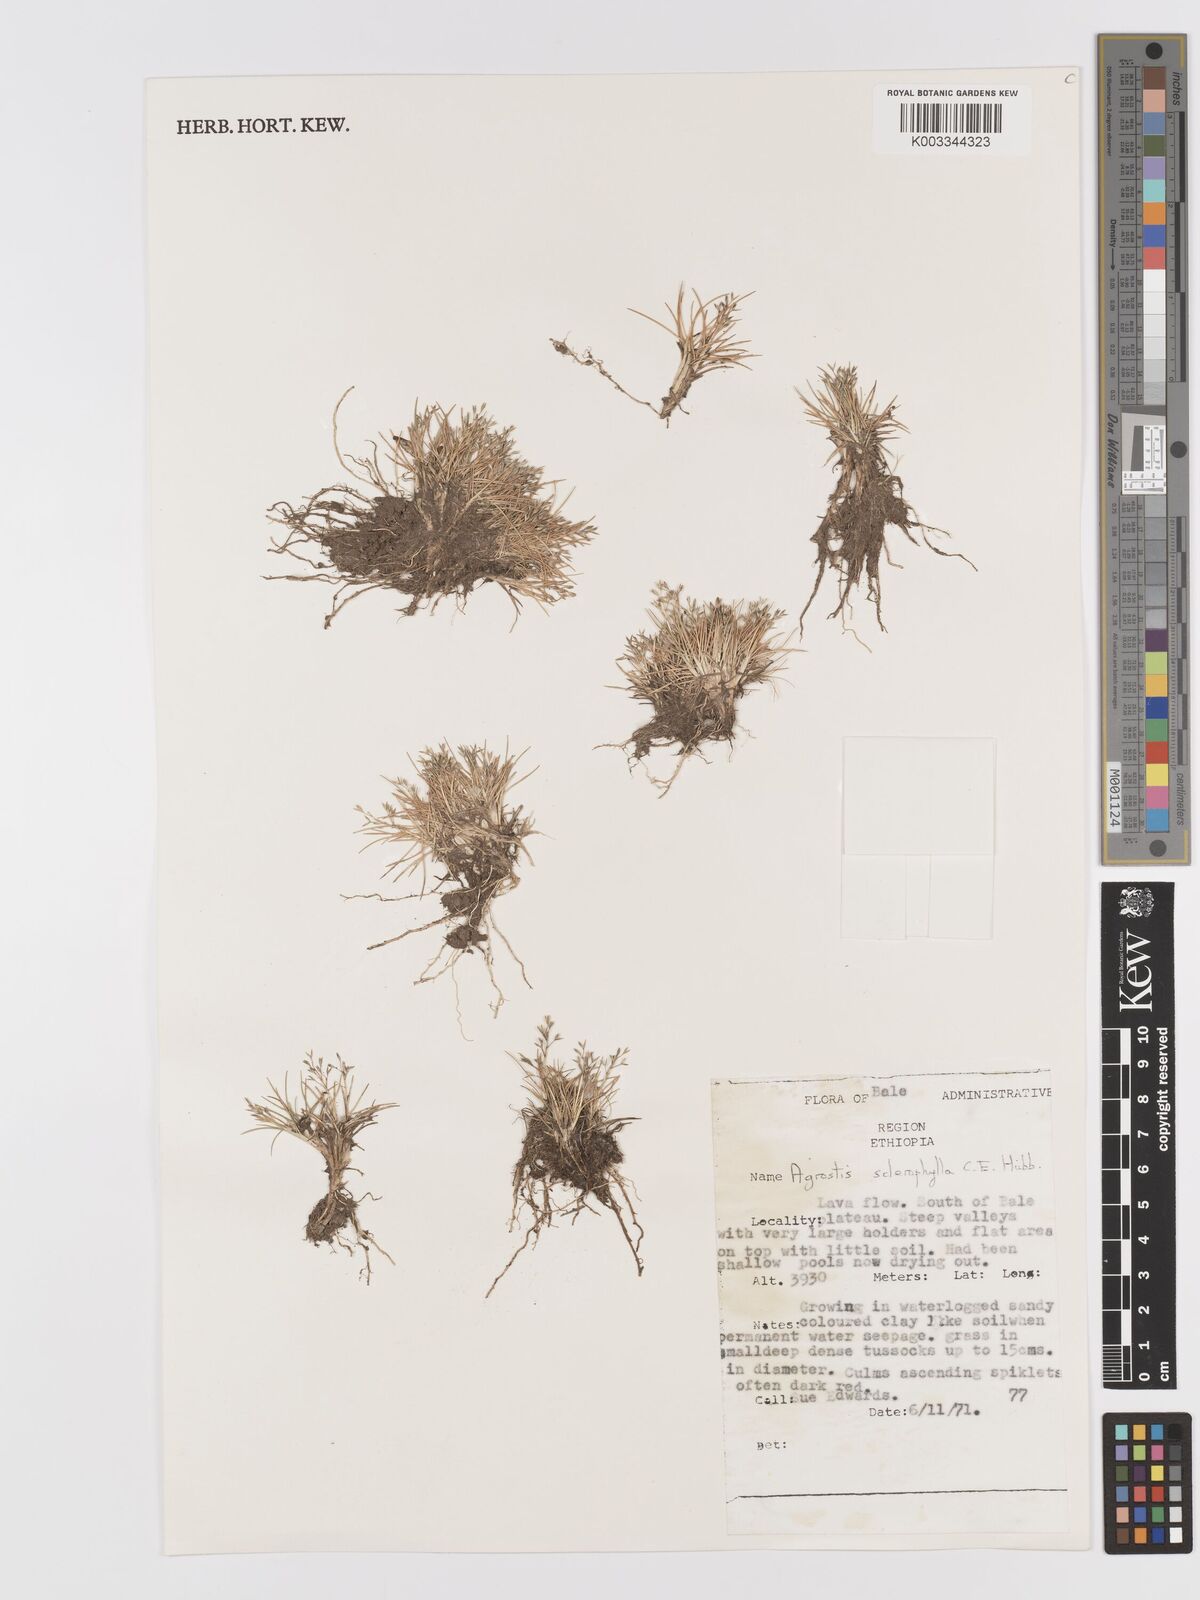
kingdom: Plantae
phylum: Tracheophyta
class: Liliopsida
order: Poales
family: Poaceae
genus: Agrostis
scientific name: Agrostis sclerophylla
